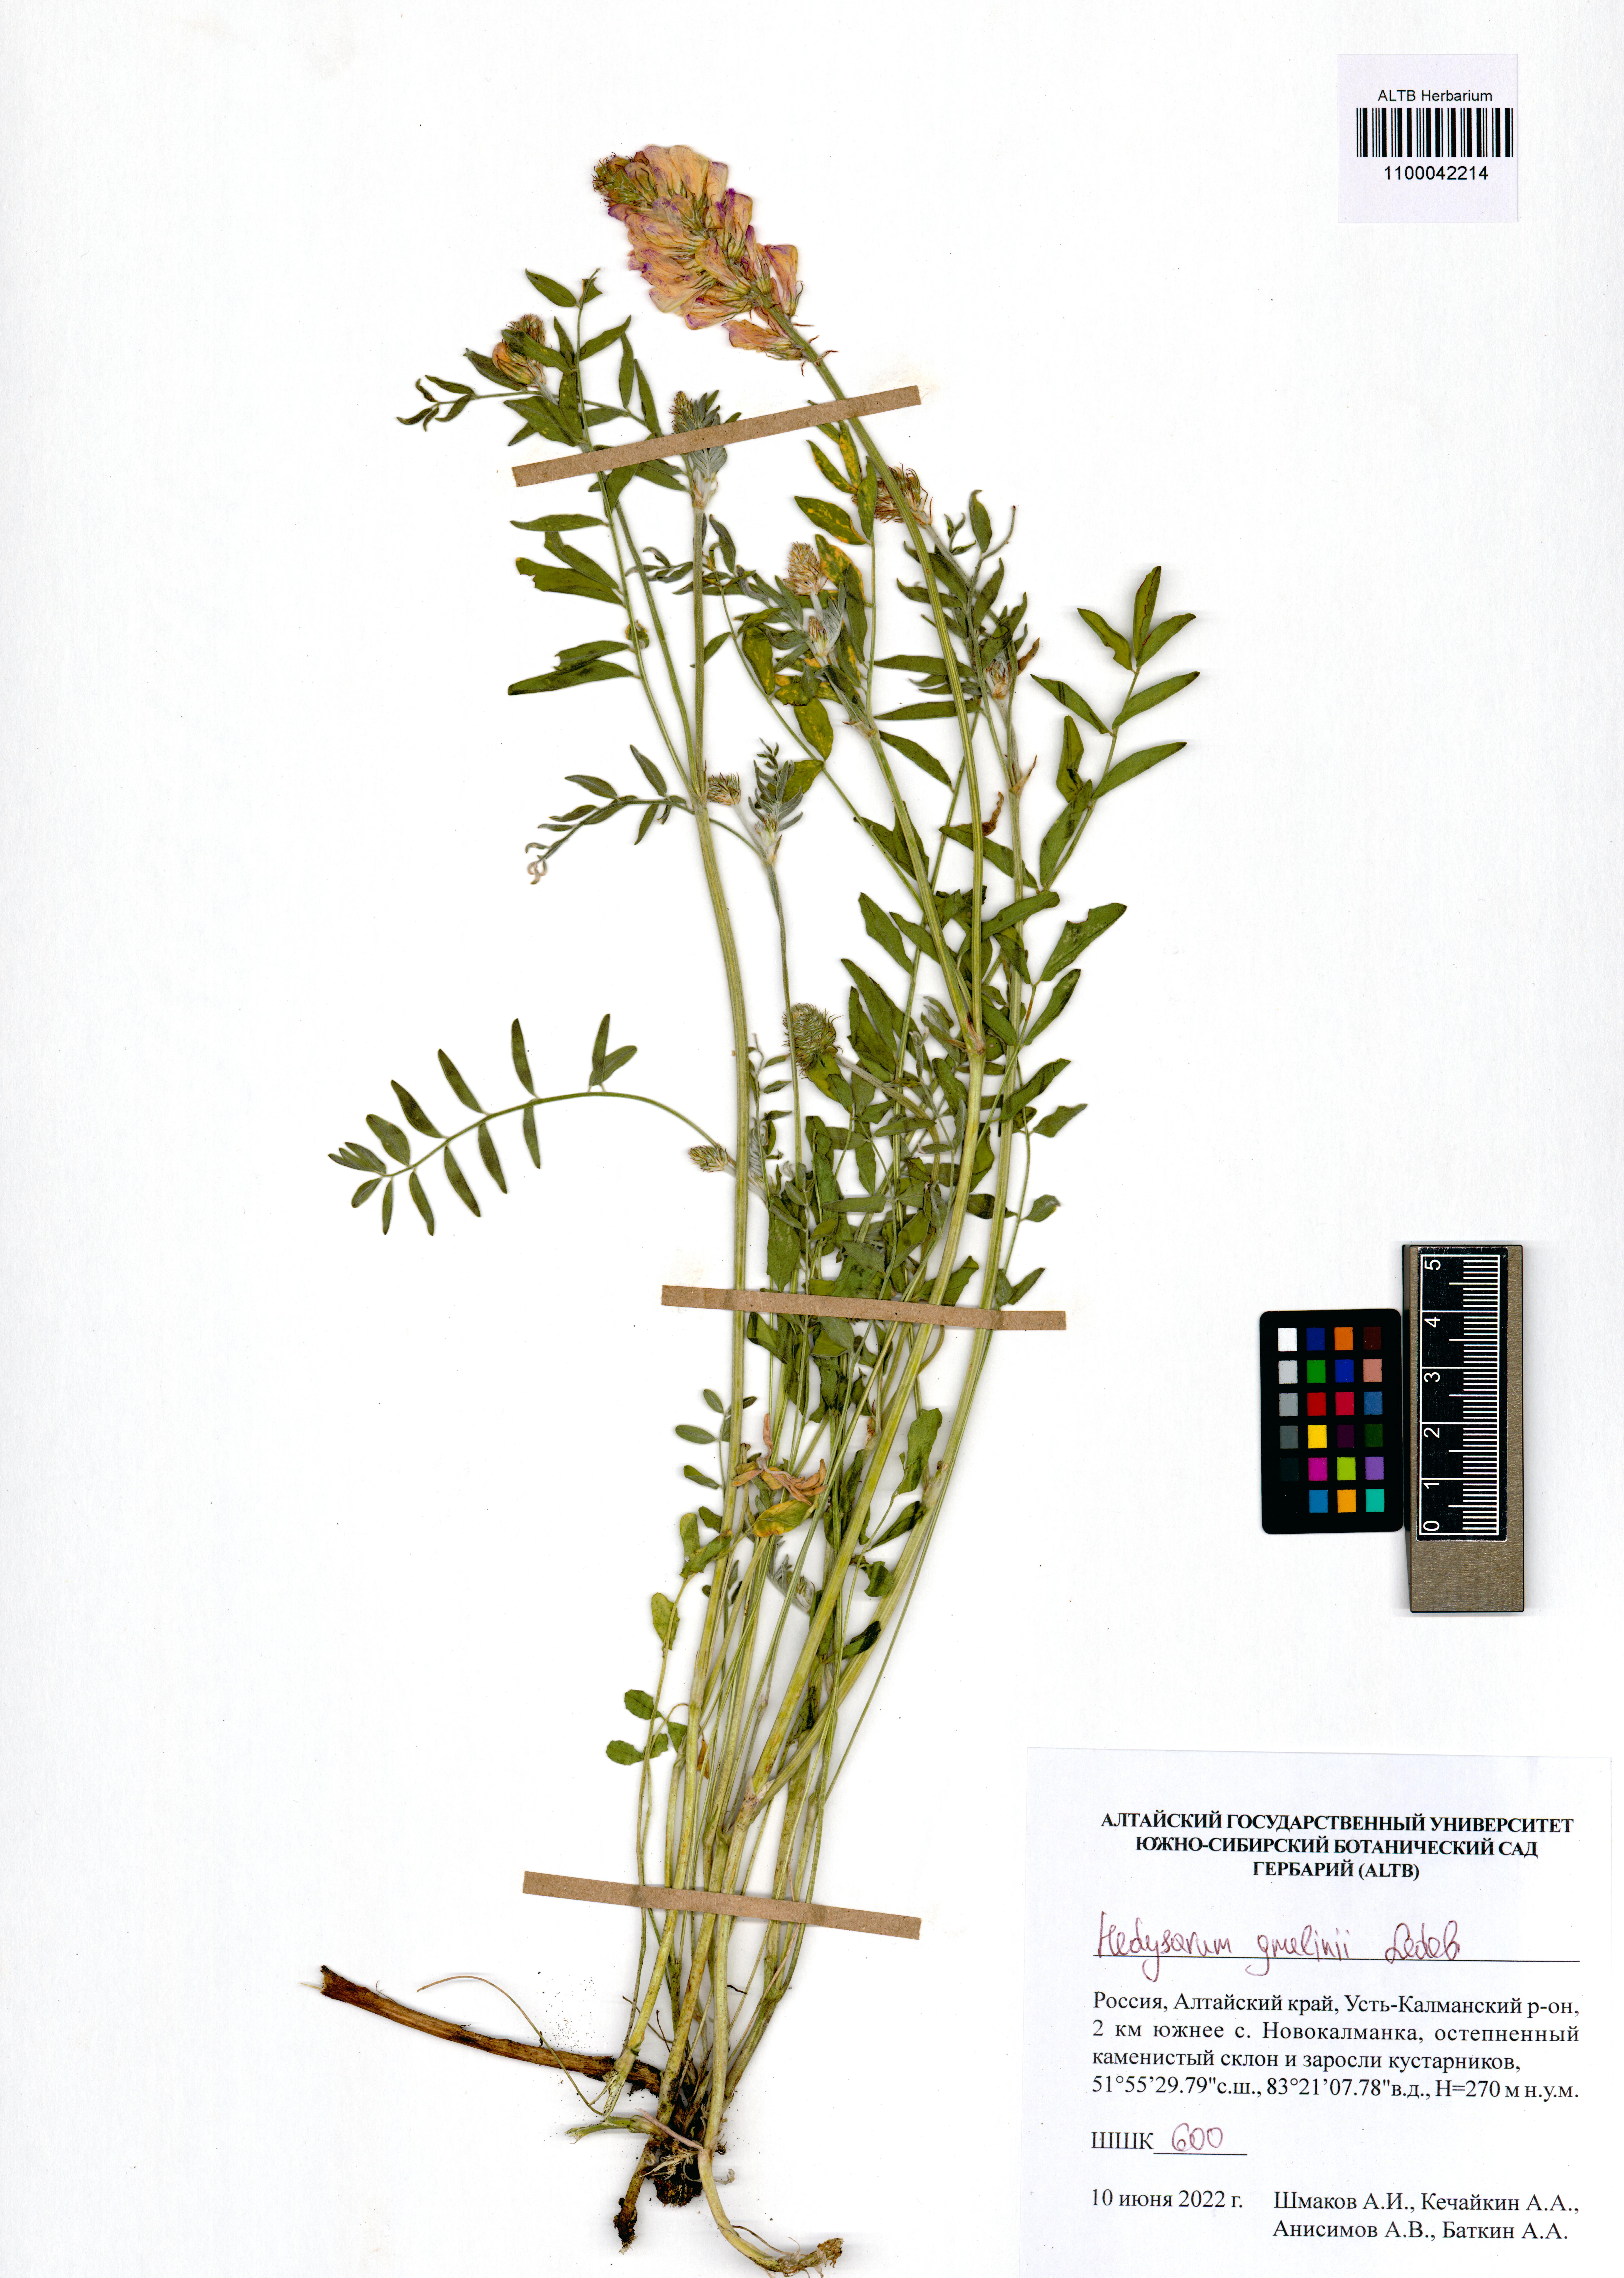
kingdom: Plantae
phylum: Tracheophyta
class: Magnoliopsida
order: Fabales
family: Fabaceae
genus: Hedysarum
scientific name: Hedysarum gmelinii
